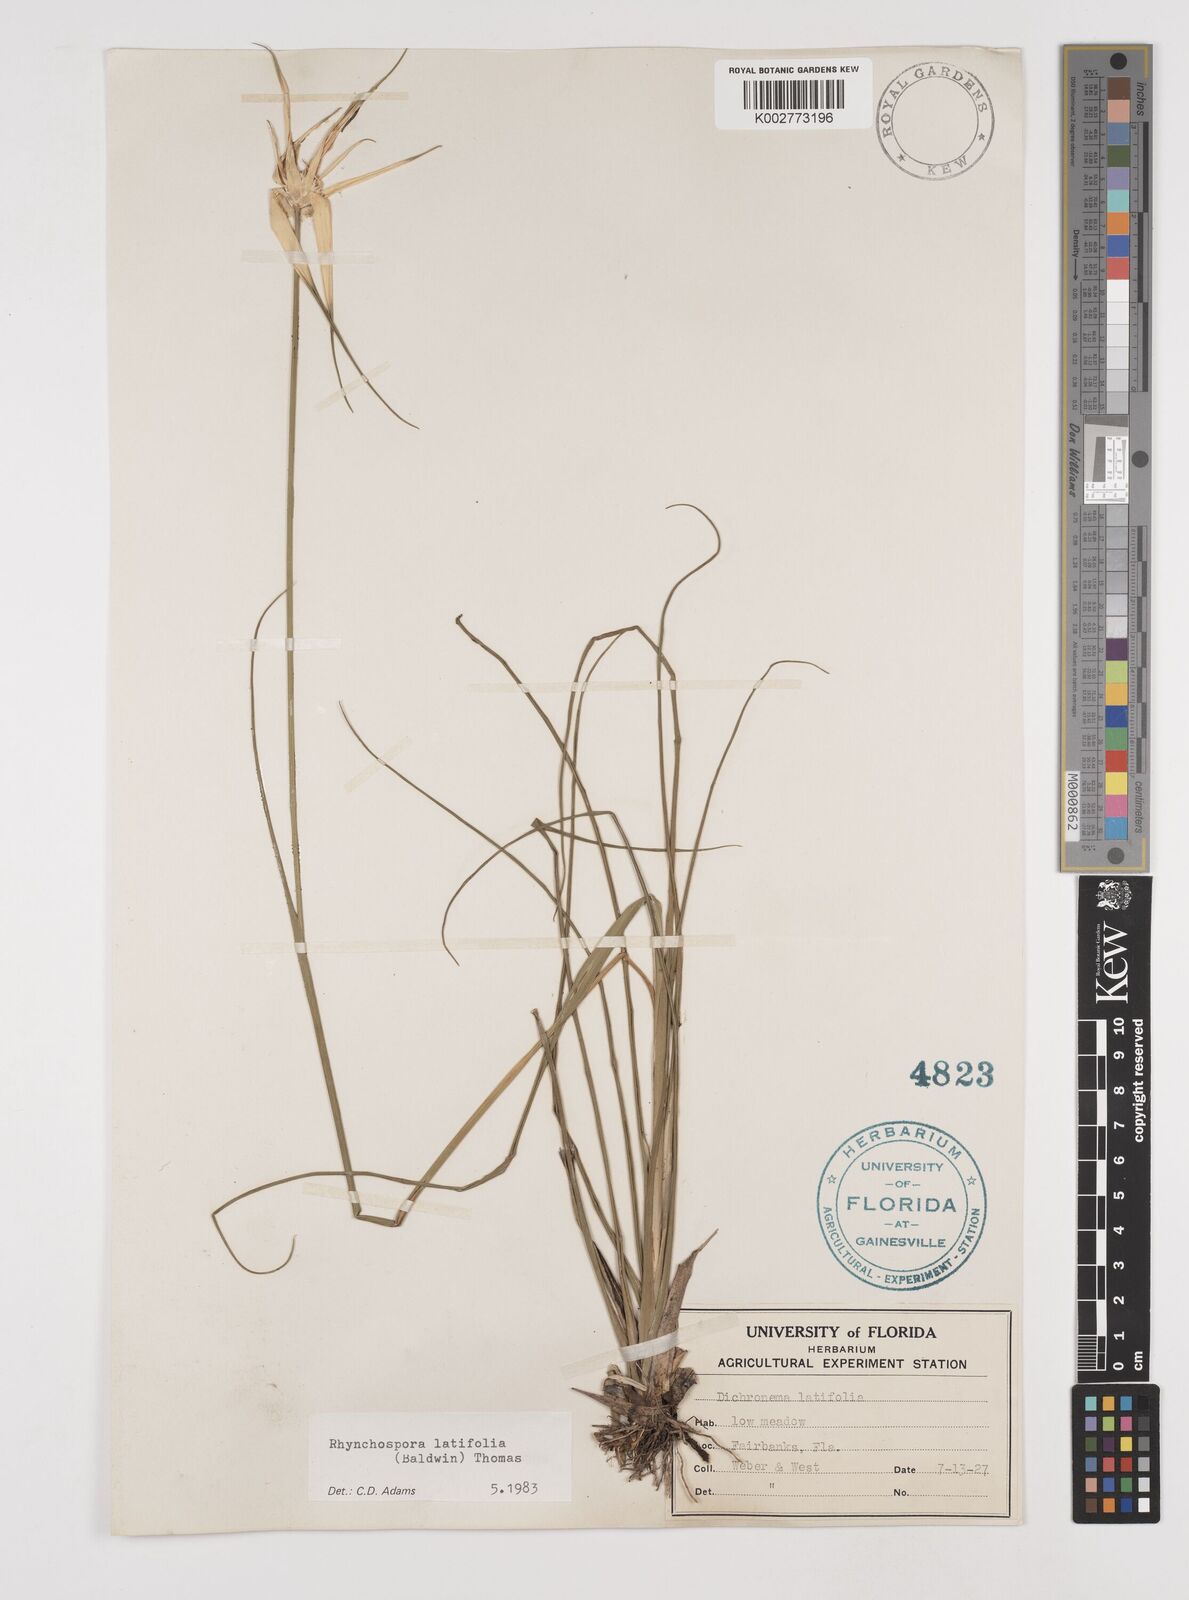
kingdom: Plantae
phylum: Tracheophyta
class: Liliopsida
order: Poales
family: Cyperaceae
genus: Rhynchospora
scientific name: Rhynchospora latifolia
